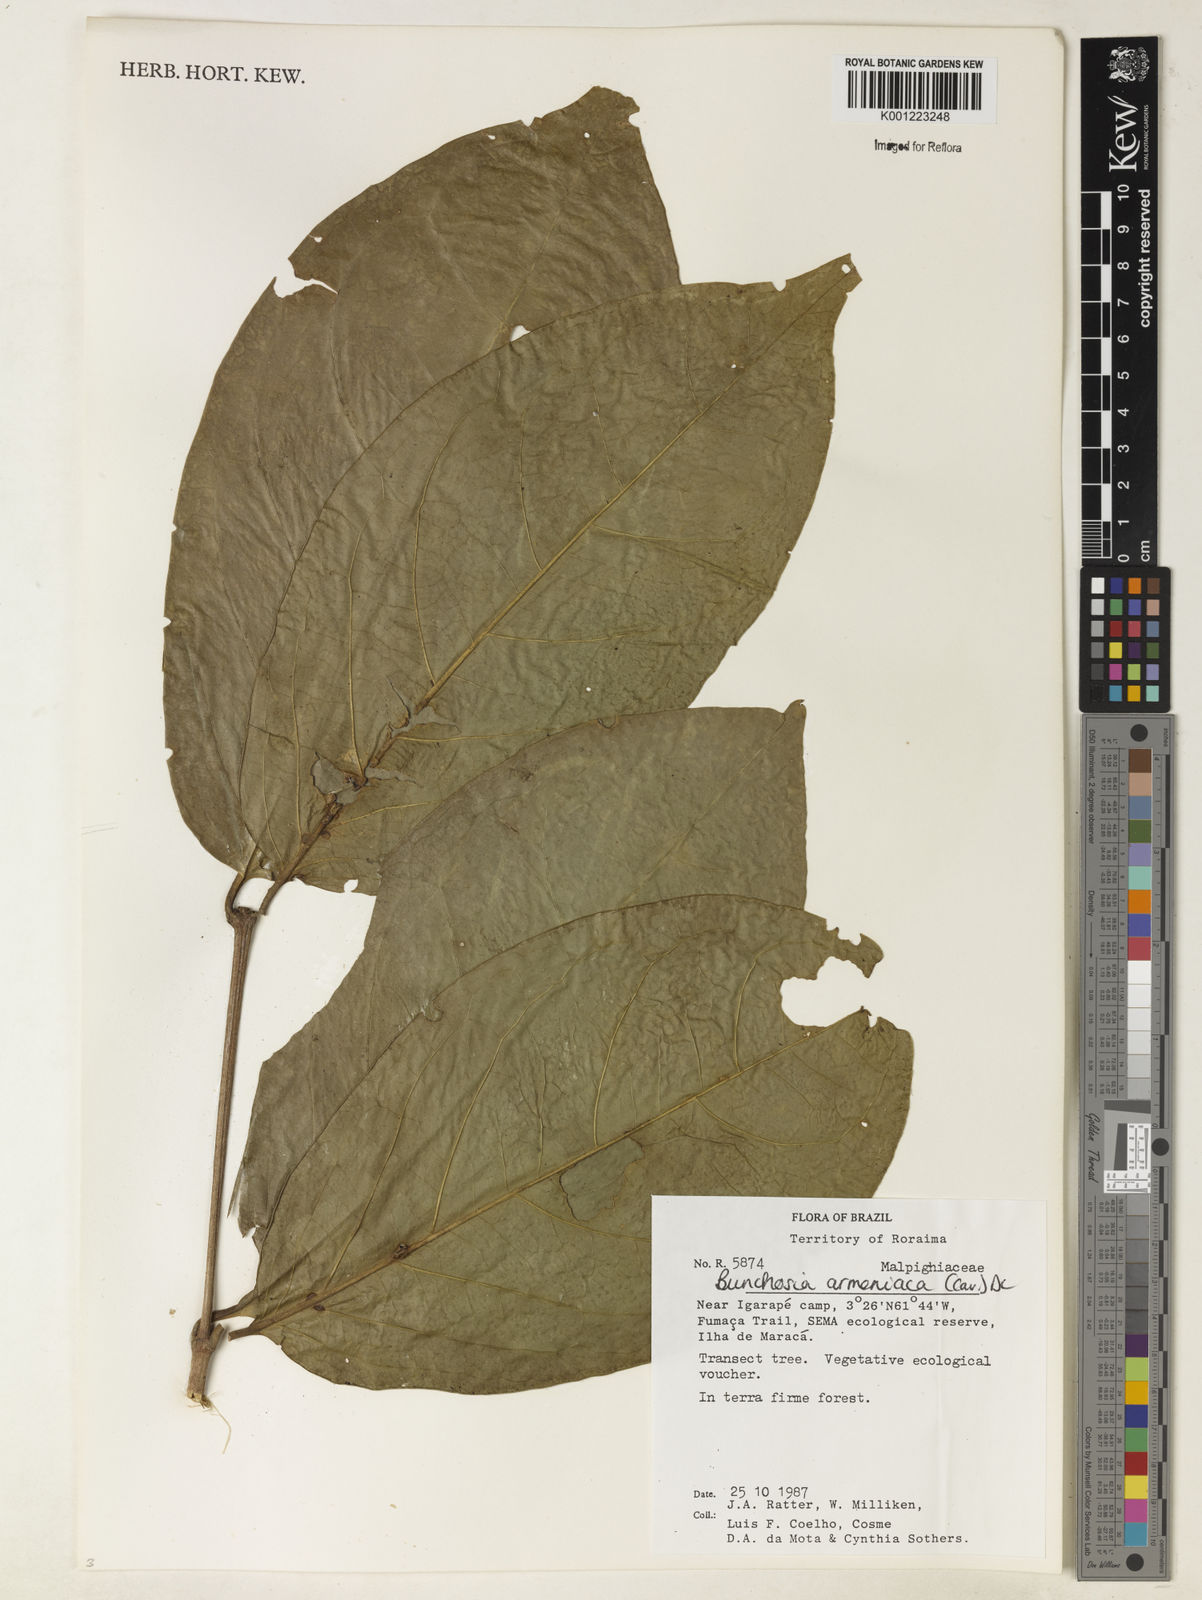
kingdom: Plantae
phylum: Tracheophyta
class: Magnoliopsida
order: Malpighiales
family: Malpighiaceae
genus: Bunchosia
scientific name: Bunchosia armeniaca
